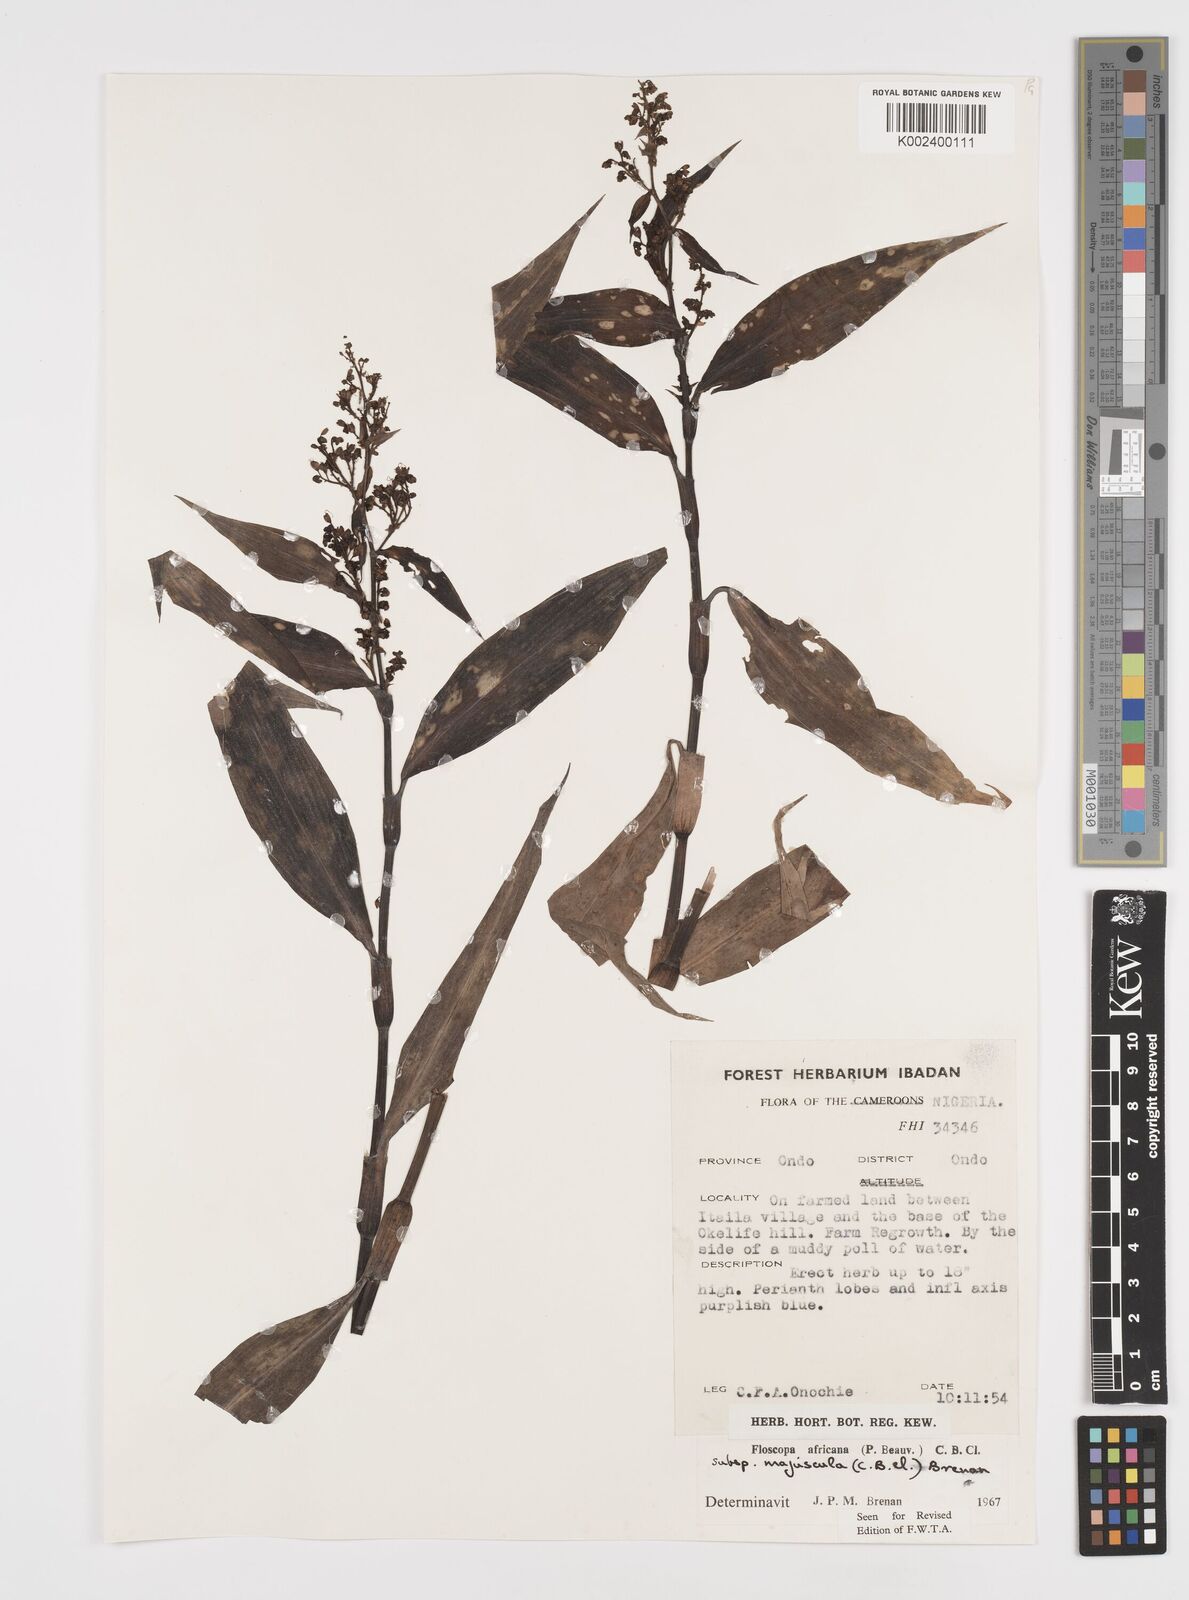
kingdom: Plantae
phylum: Tracheophyta
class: Liliopsida
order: Commelinales
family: Commelinaceae
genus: Floscopa
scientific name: Floscopa africana
